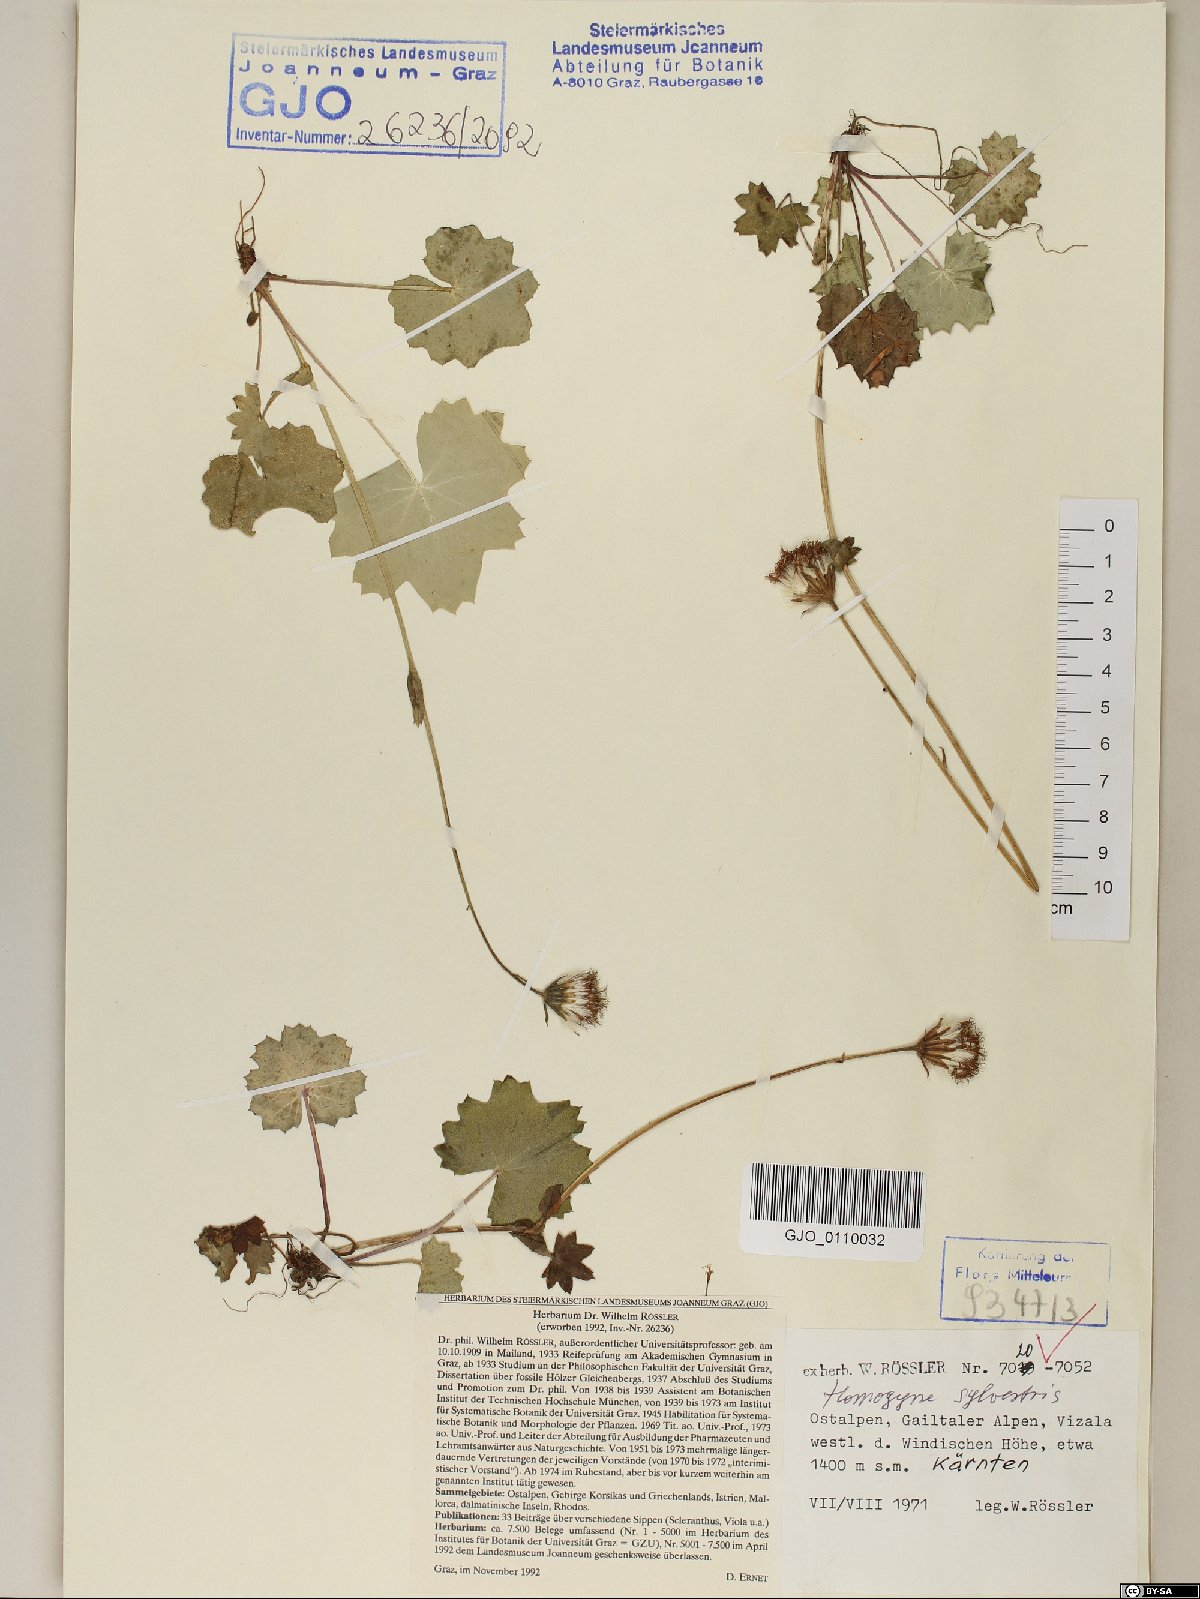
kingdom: Plantae
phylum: Tracheophyta
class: Magnoliopsida
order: Asterales
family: Asteraceae
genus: Homogyne
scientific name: Homogyne sylvestris
